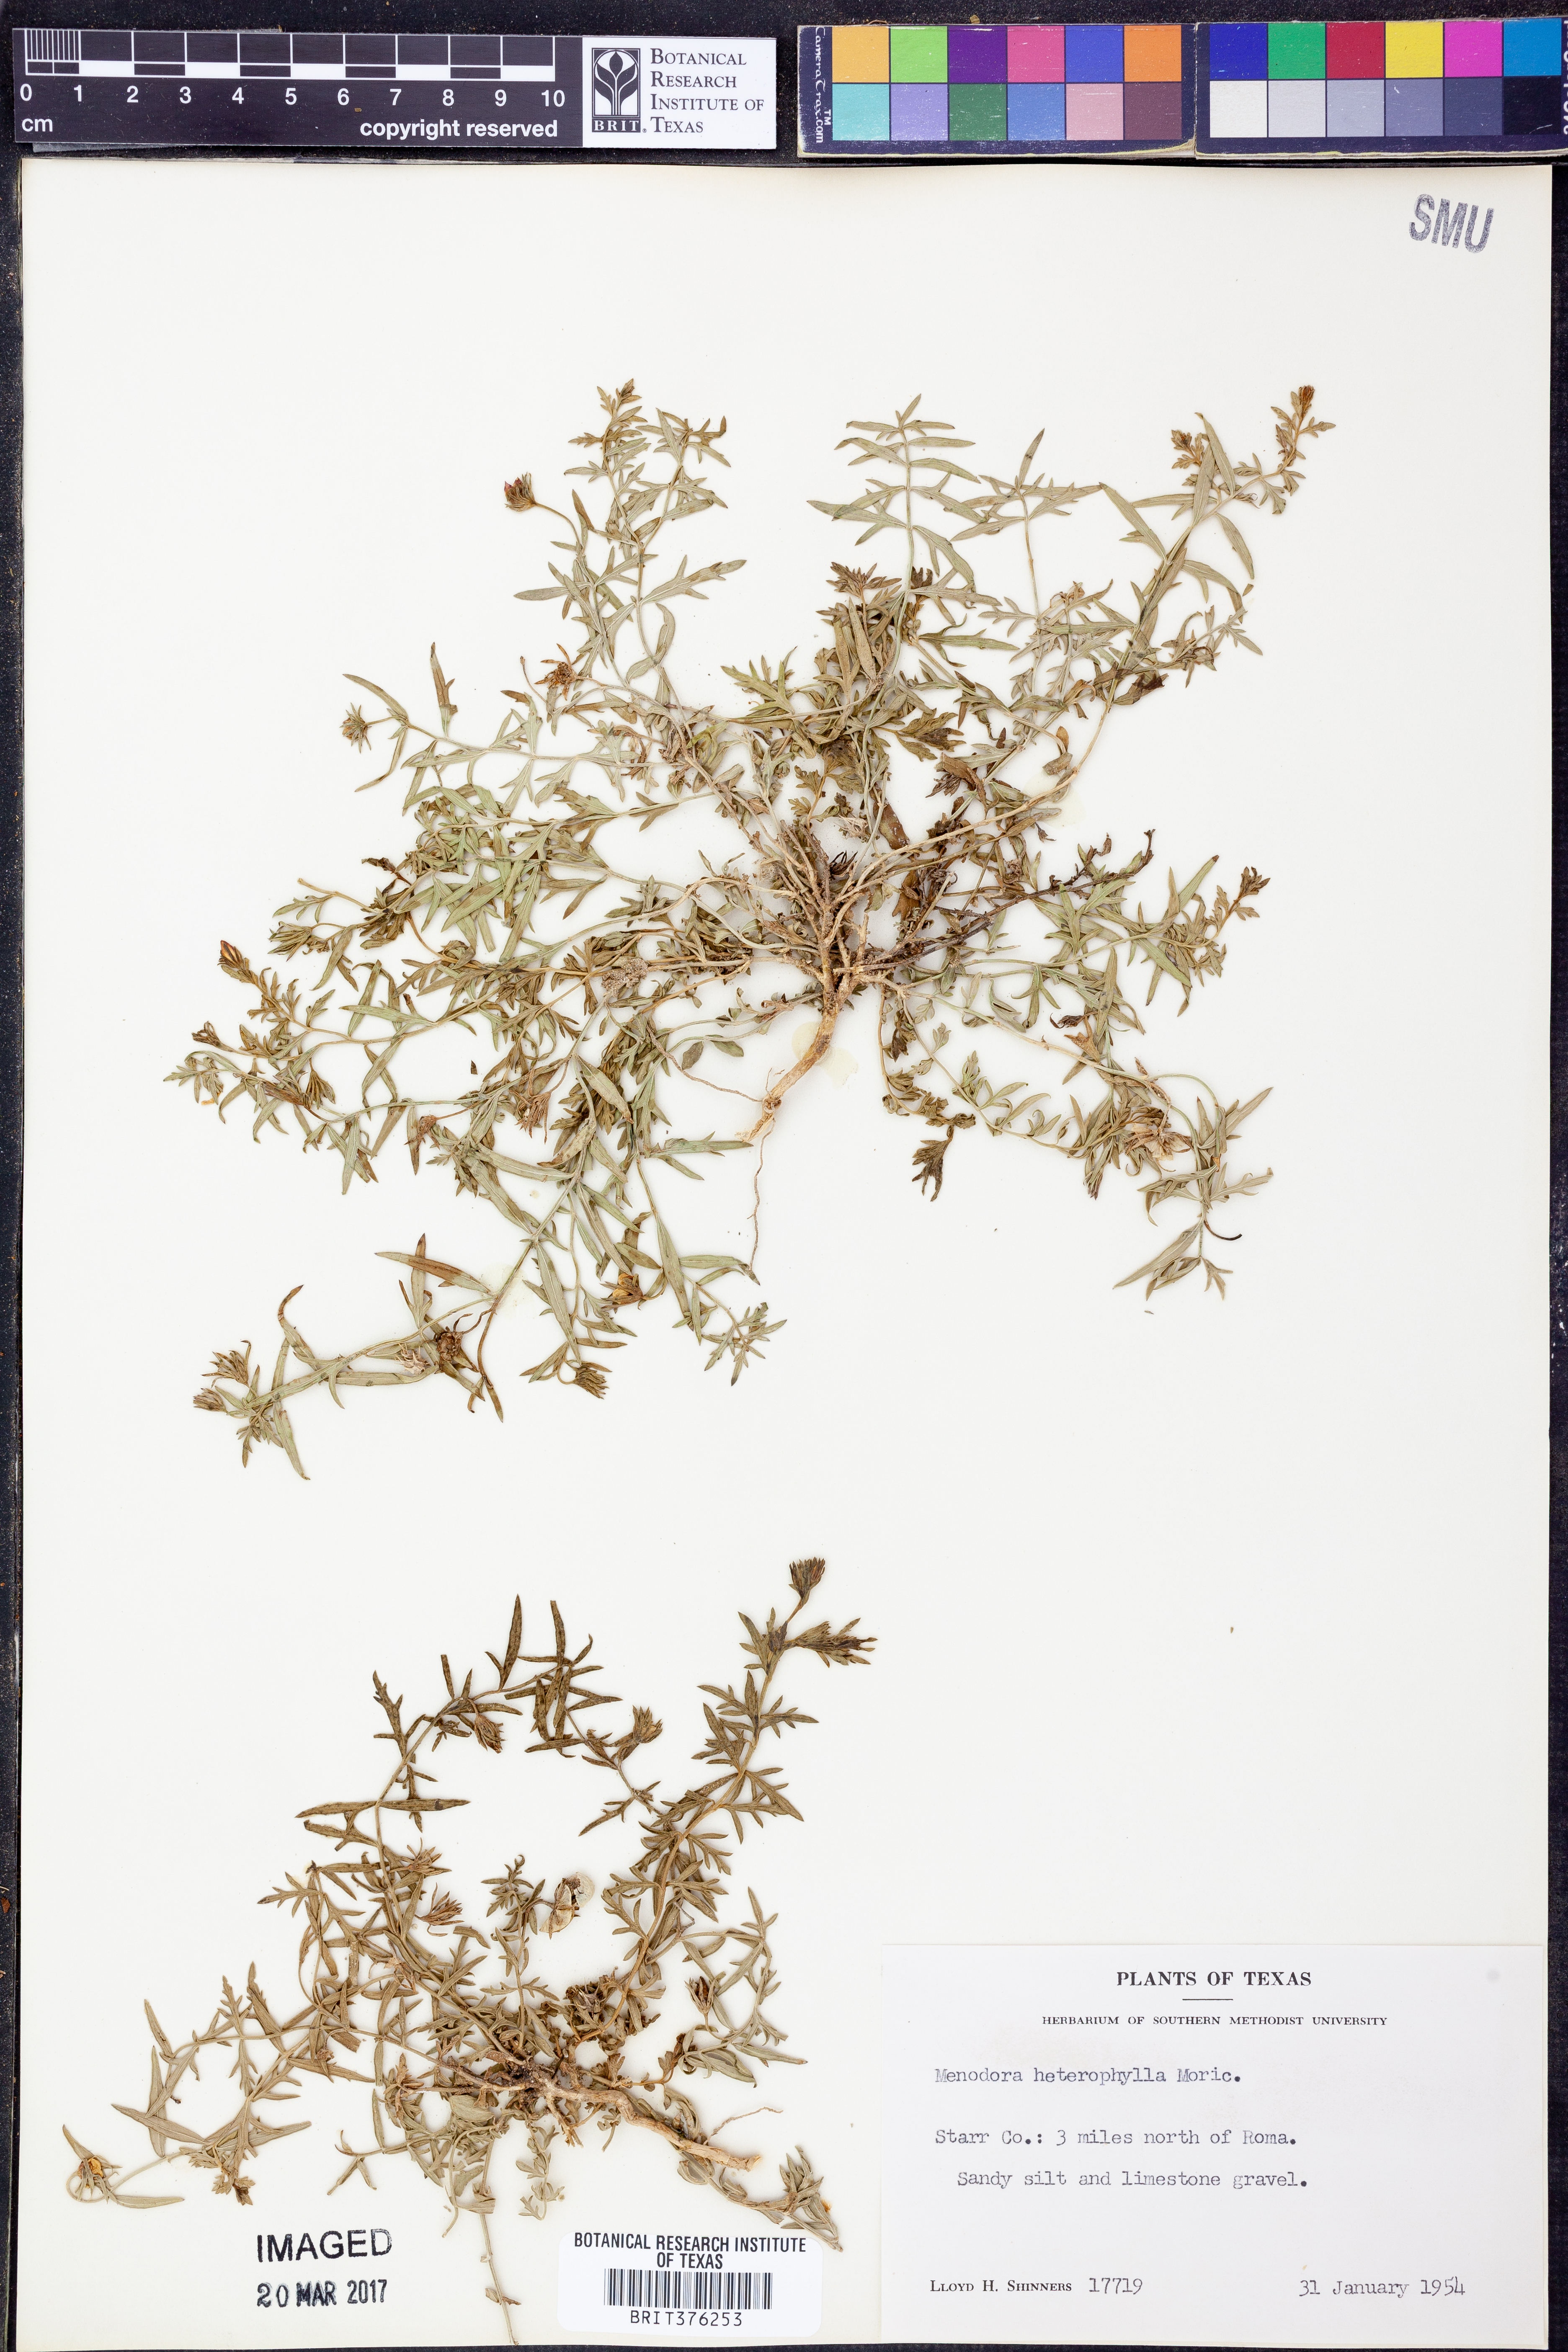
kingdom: Plantae
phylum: Tracheophyta
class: Magnoliopsida
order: Lamiales
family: Oleaceae
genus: Menodora
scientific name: Menodora heterophylla
